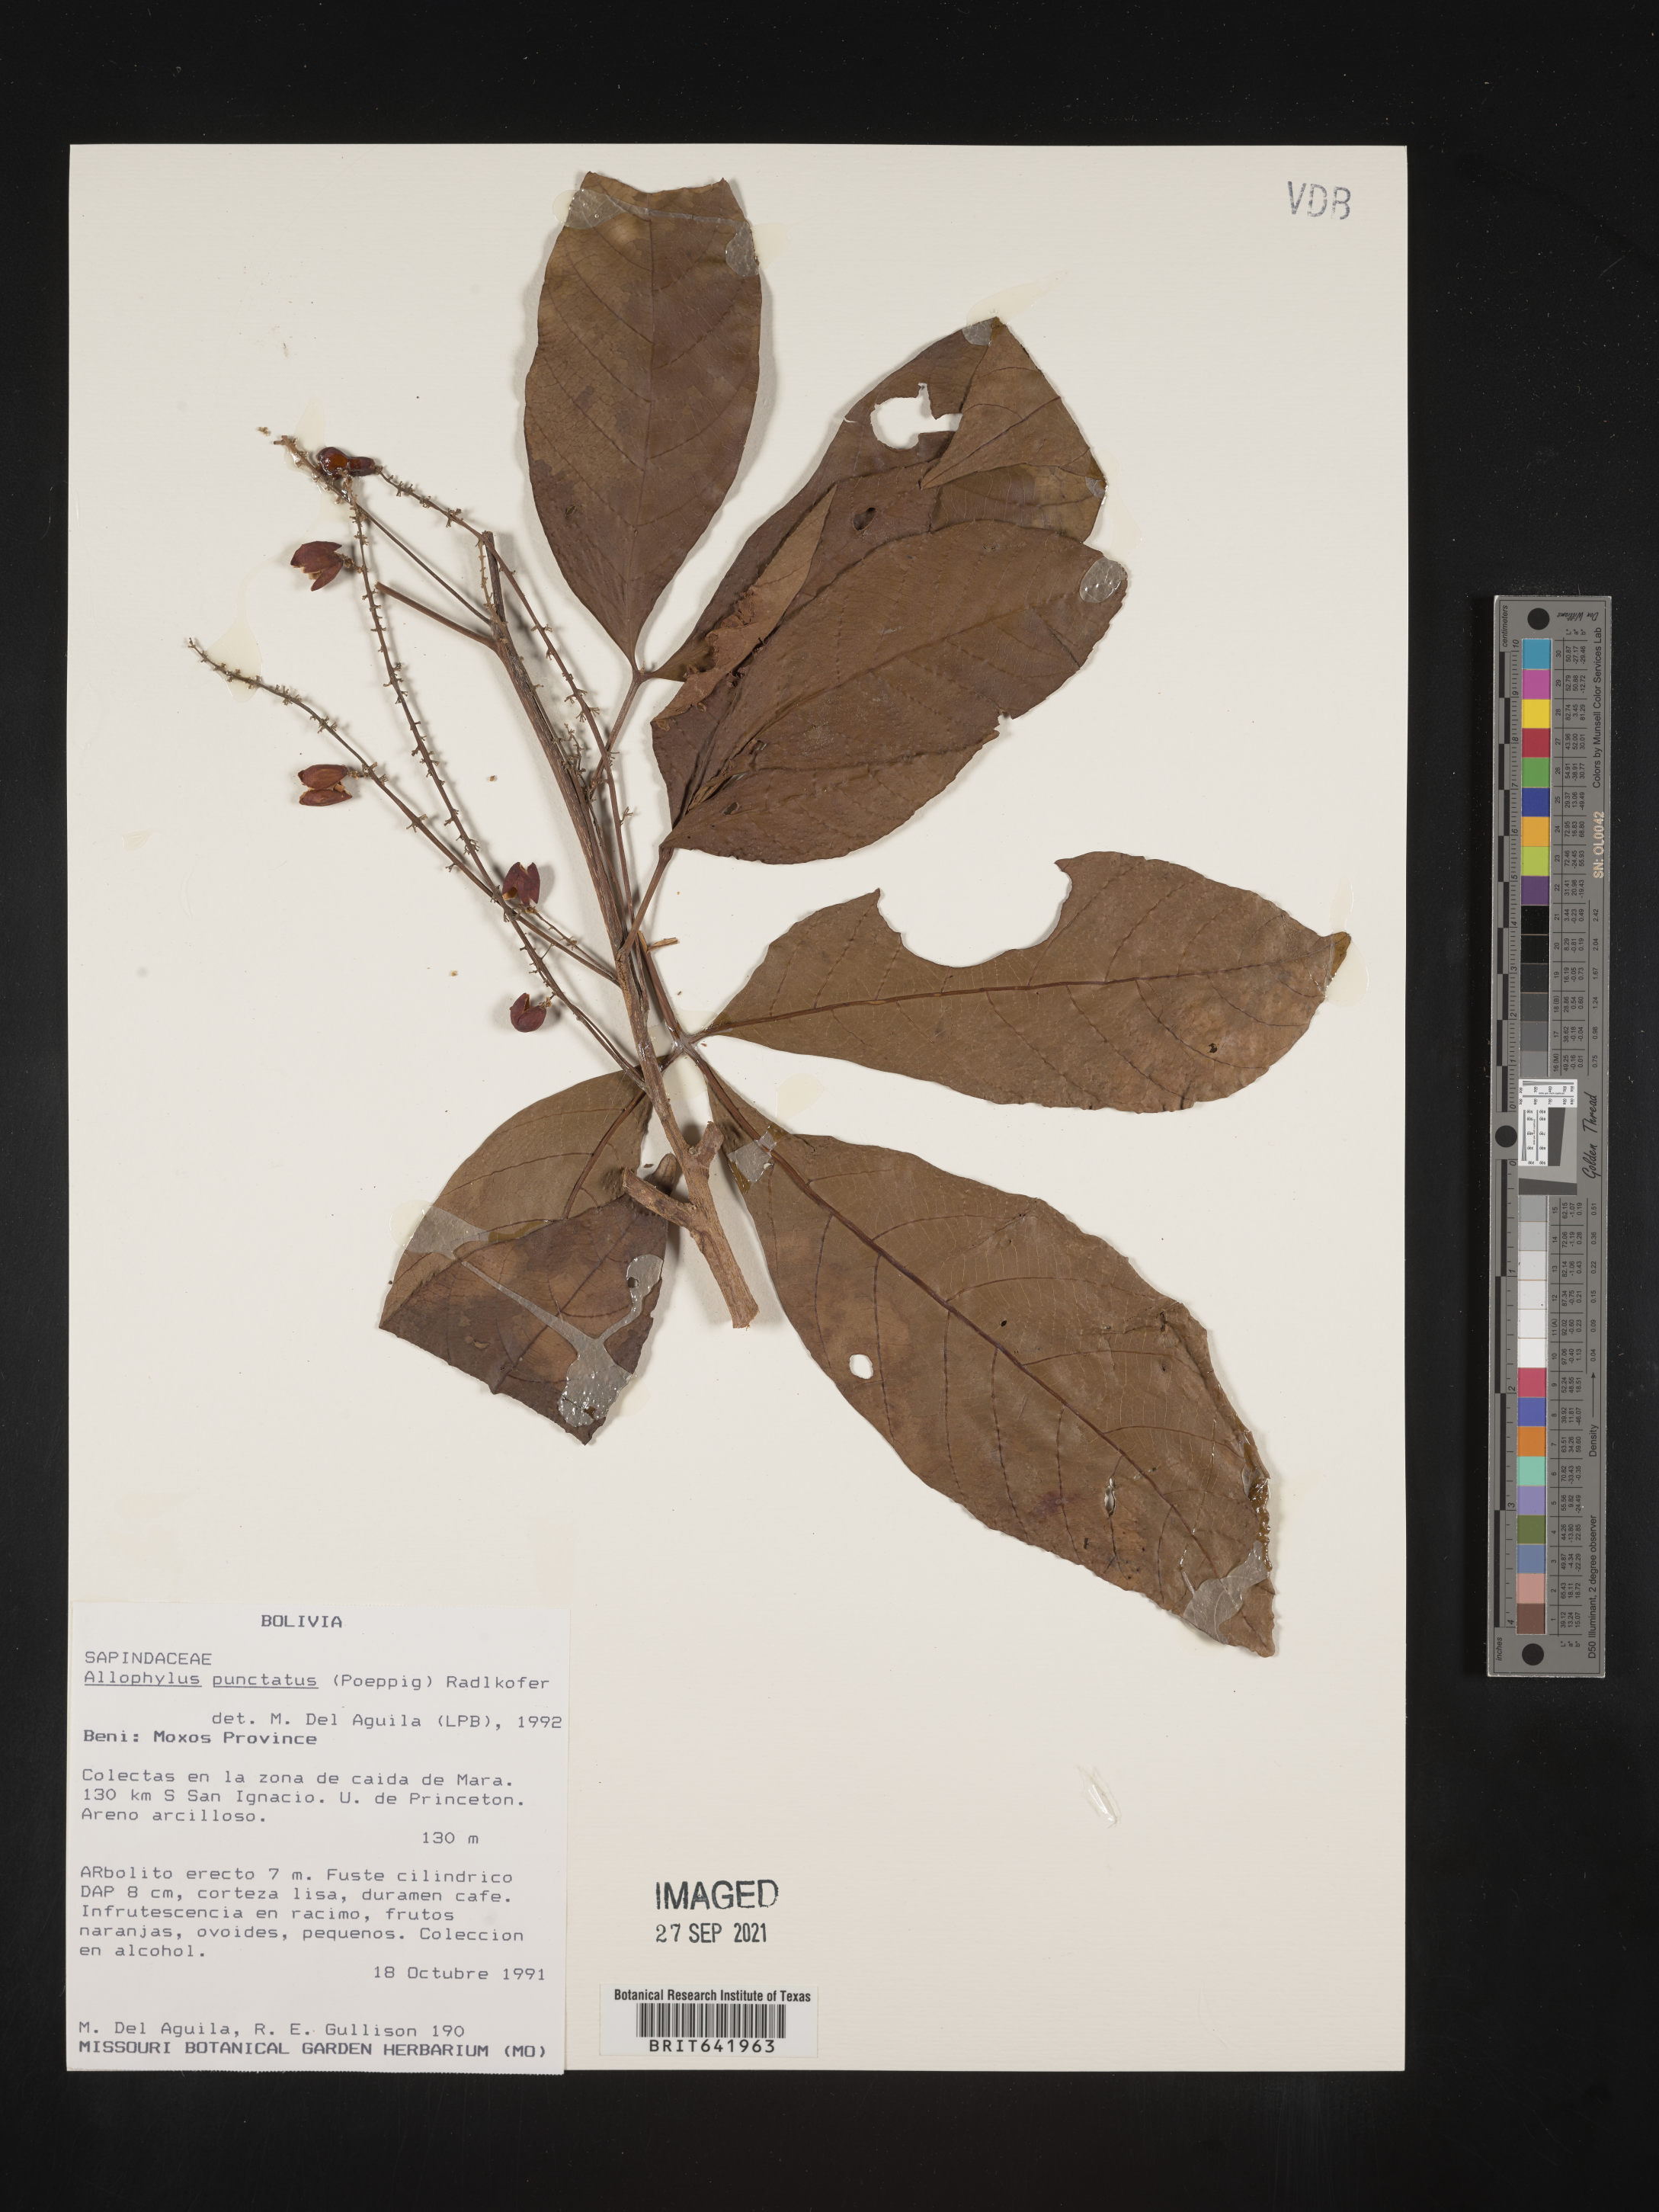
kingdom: Plantae
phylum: Tracheophyta
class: Magnoliopsida
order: Sapindales
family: Sapindaceae
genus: Allophylus
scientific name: Allophylus
